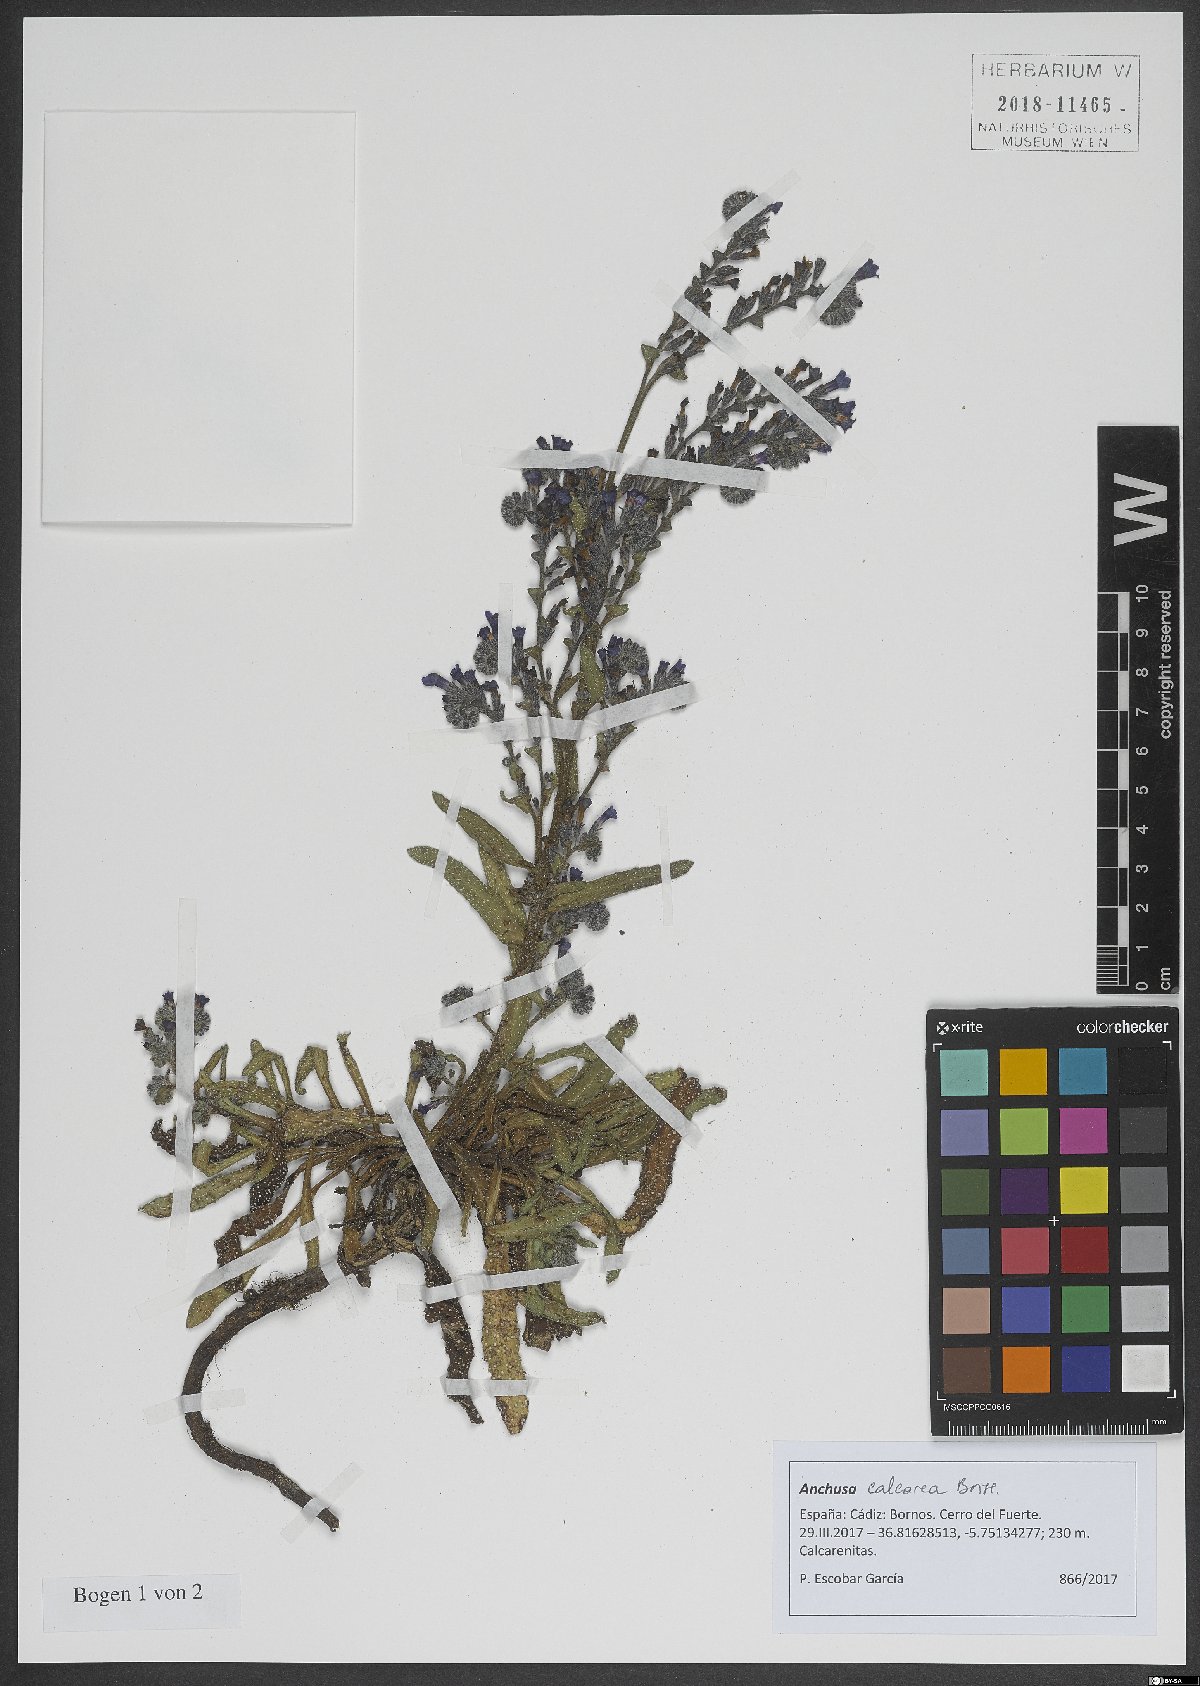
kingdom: Plantae
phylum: Tracheophyta
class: Magnoliopsida
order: Boraginales
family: Boraginaceae
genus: Anchusa
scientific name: Anchusa calcarea
